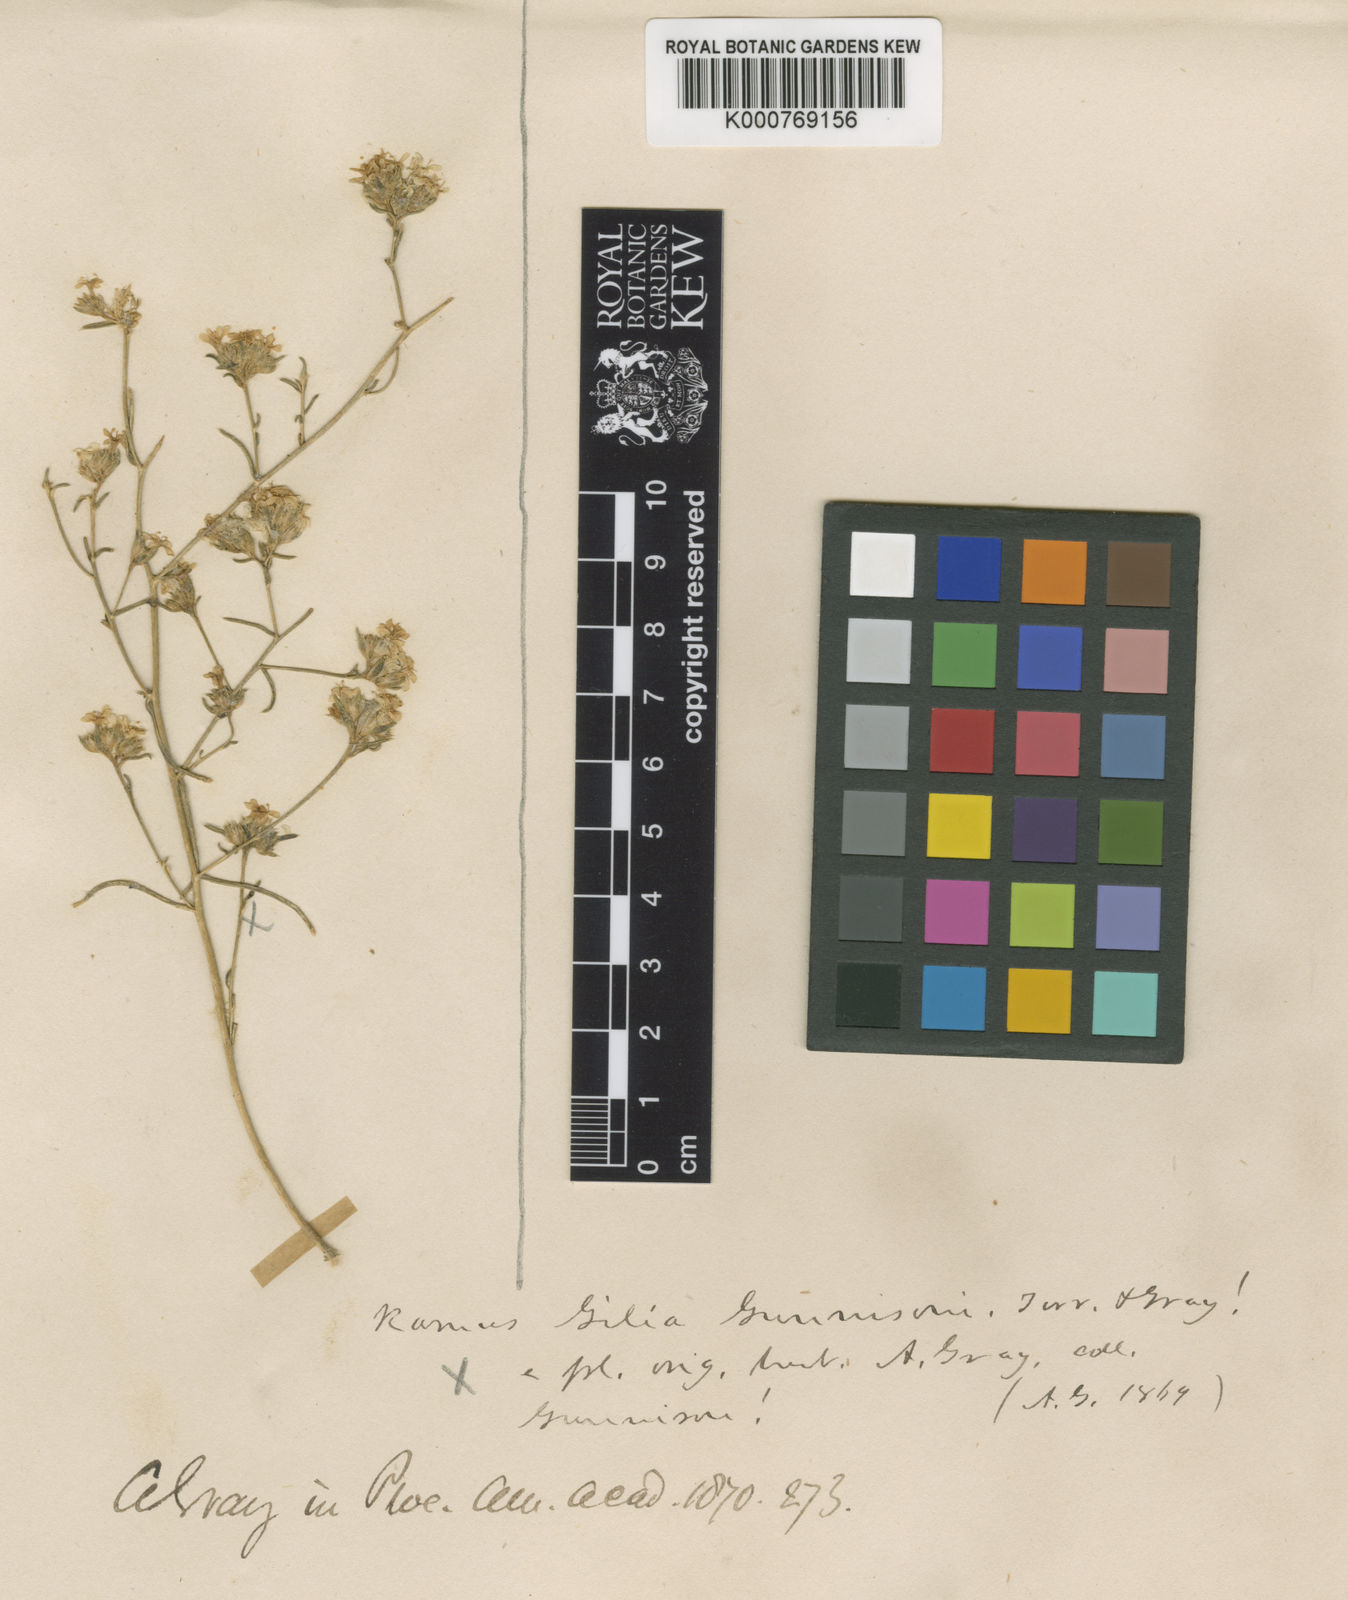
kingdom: Plantae
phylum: Tracheophyta
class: Magnoliopsida
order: Ericales
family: Polemoniaceae
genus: Ipomopsis
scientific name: Ipomopsis gunnisonii
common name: Sand-dune gilia
